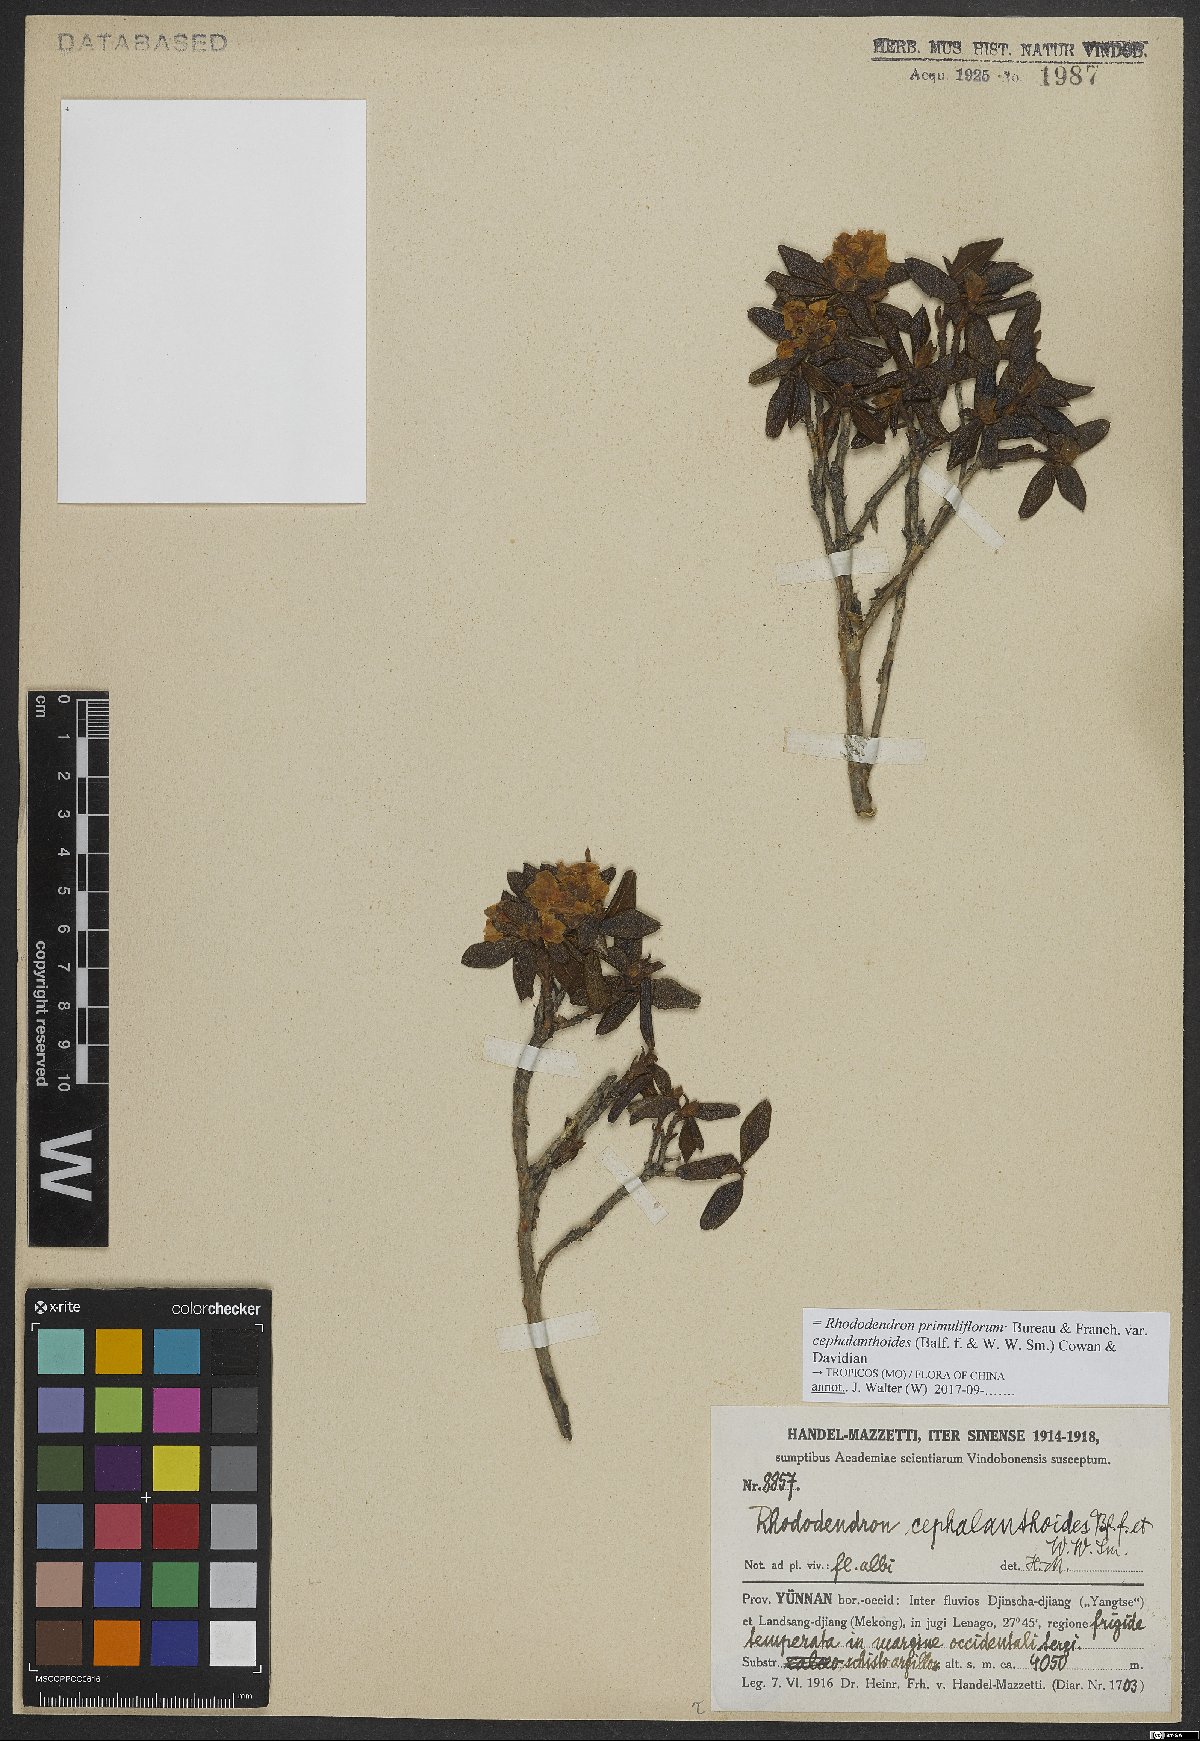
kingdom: Plantae
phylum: Tracheophyta
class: Magnoliopsida
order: Ericales
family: Ericaceae
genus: Rhododendron
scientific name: Rhododendron primuliflorum
